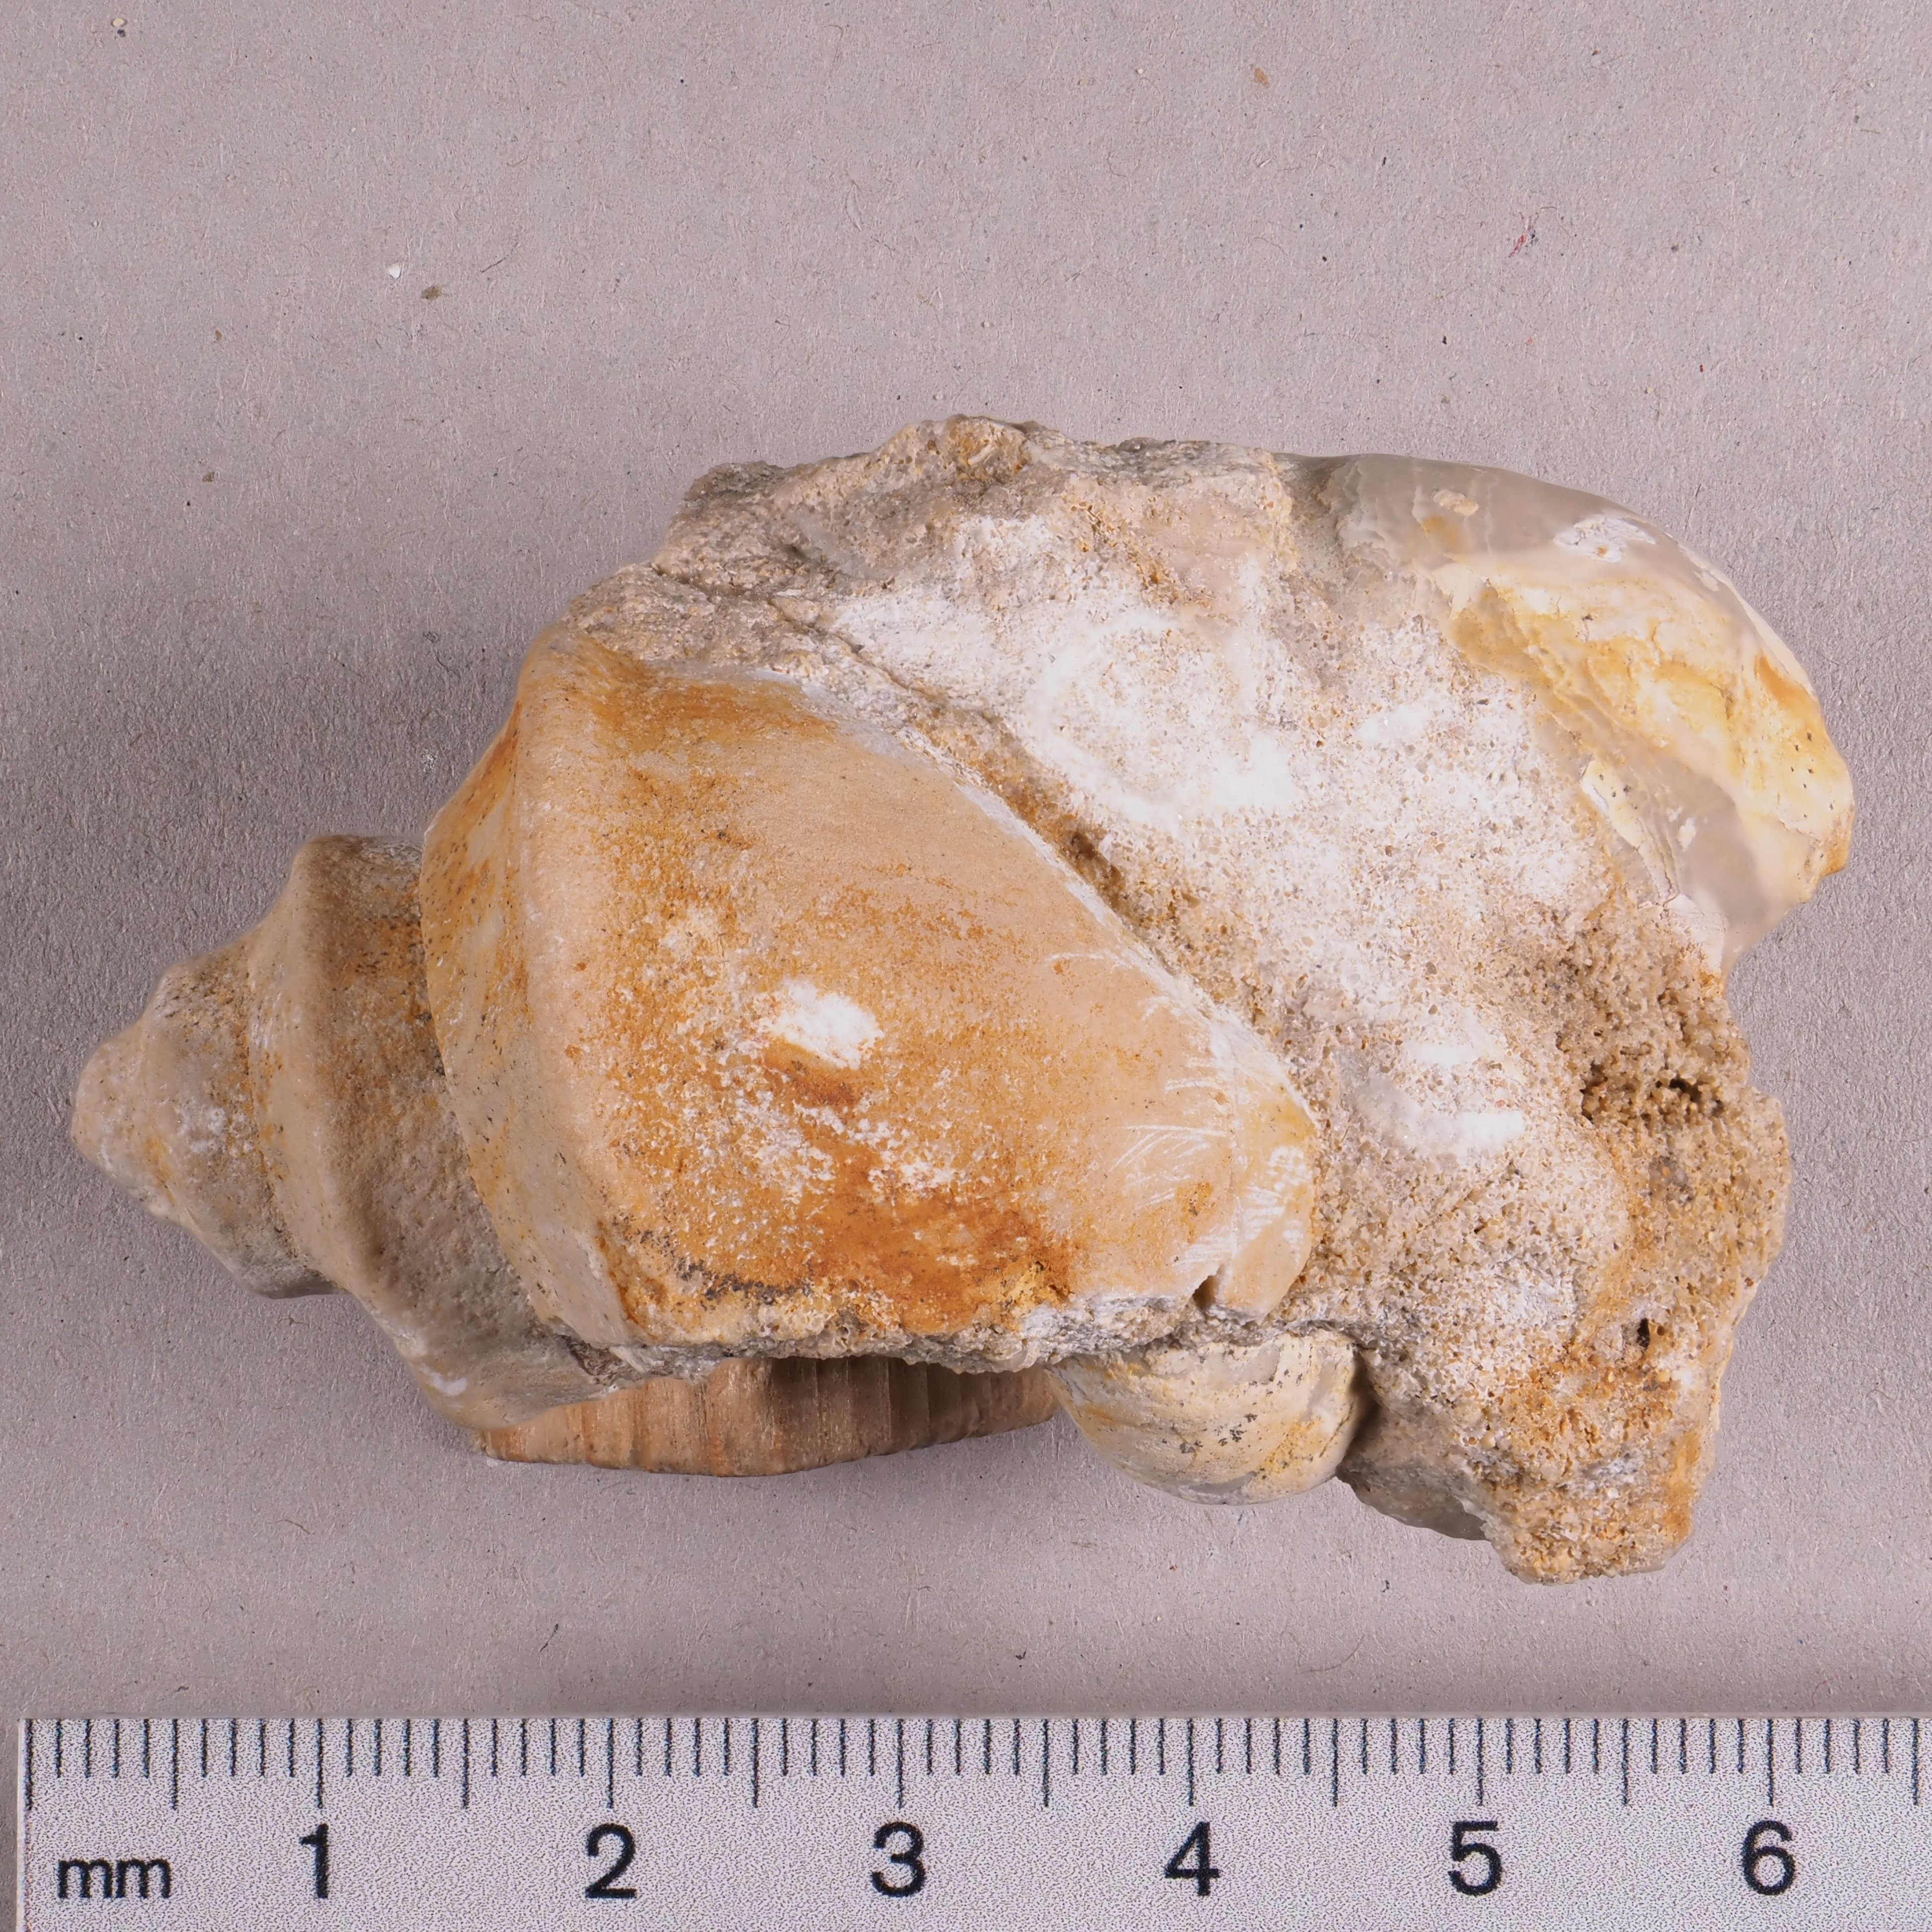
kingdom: Animalia
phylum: Mollusca
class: Gastropoda
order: Neogastropoda
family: Purpurinidae
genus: Tretospira
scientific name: Tretospira
